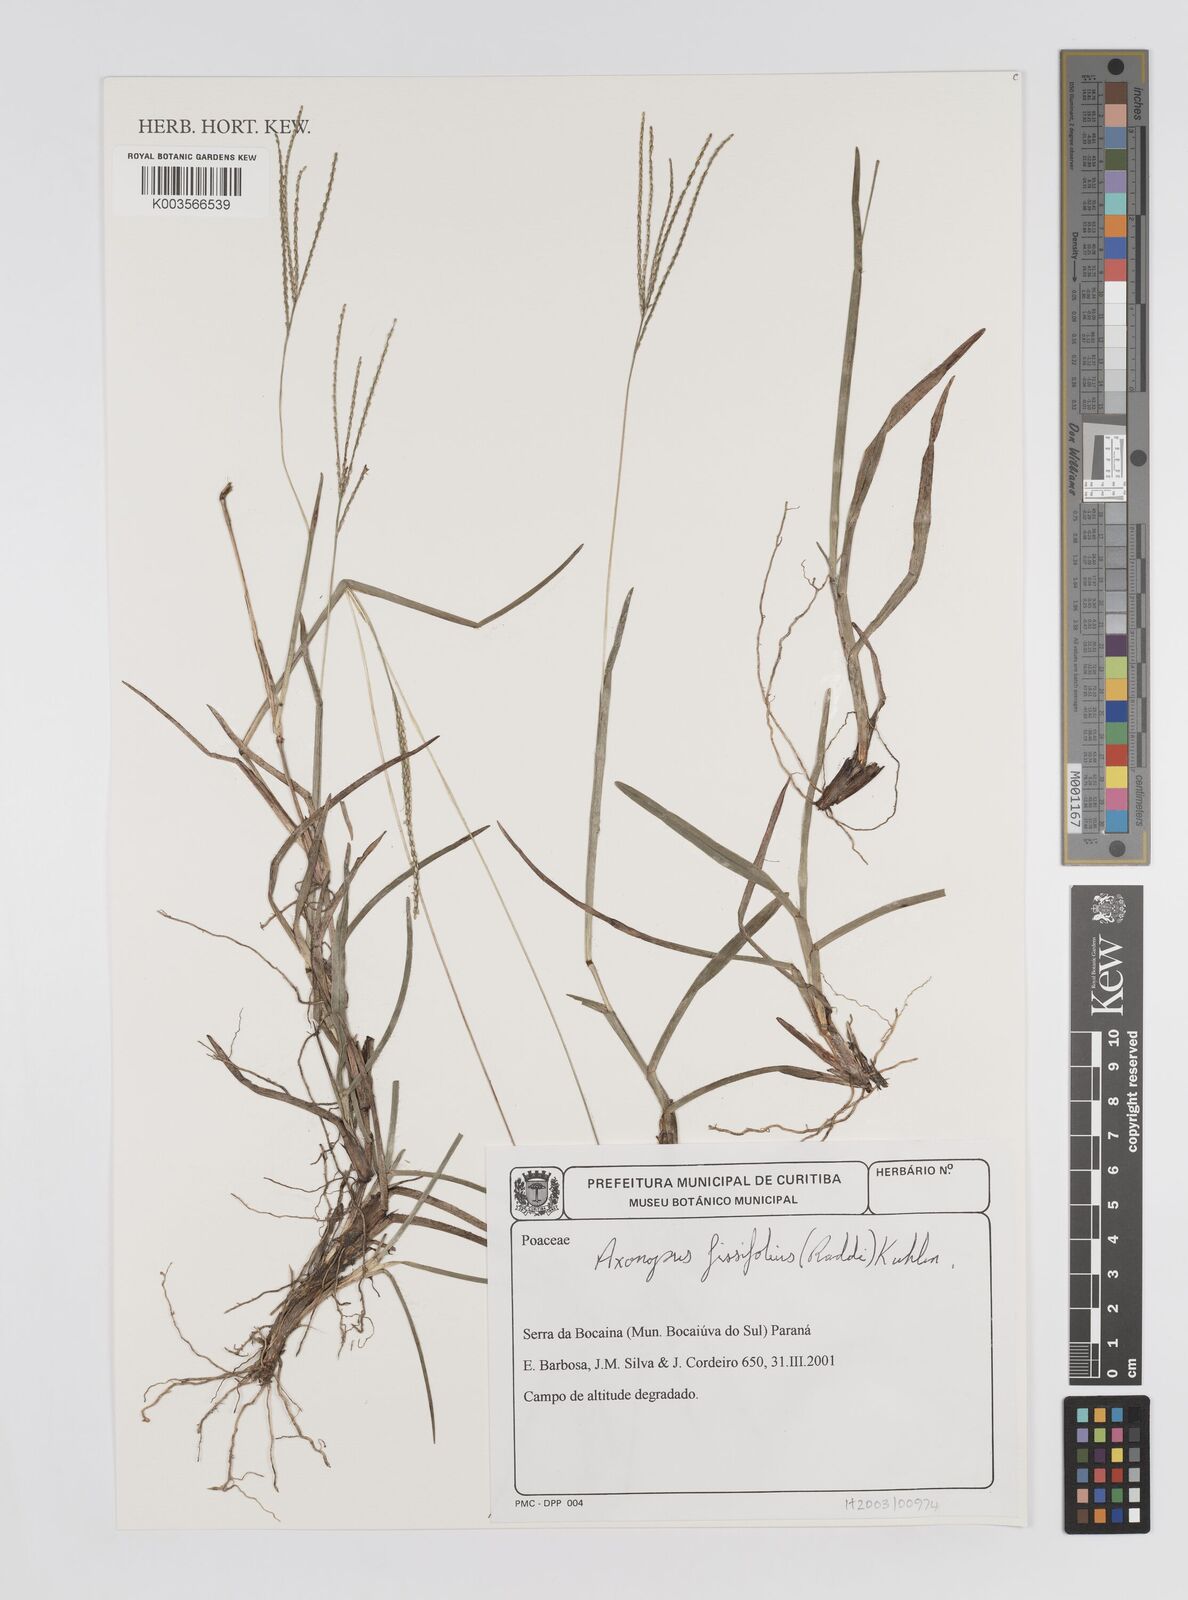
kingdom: Plantae
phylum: Tracheophyta
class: Liliopsida
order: Poales
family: Poaceae
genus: Axonopus
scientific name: Axonopus fissifolius
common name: Common carpetgrass
